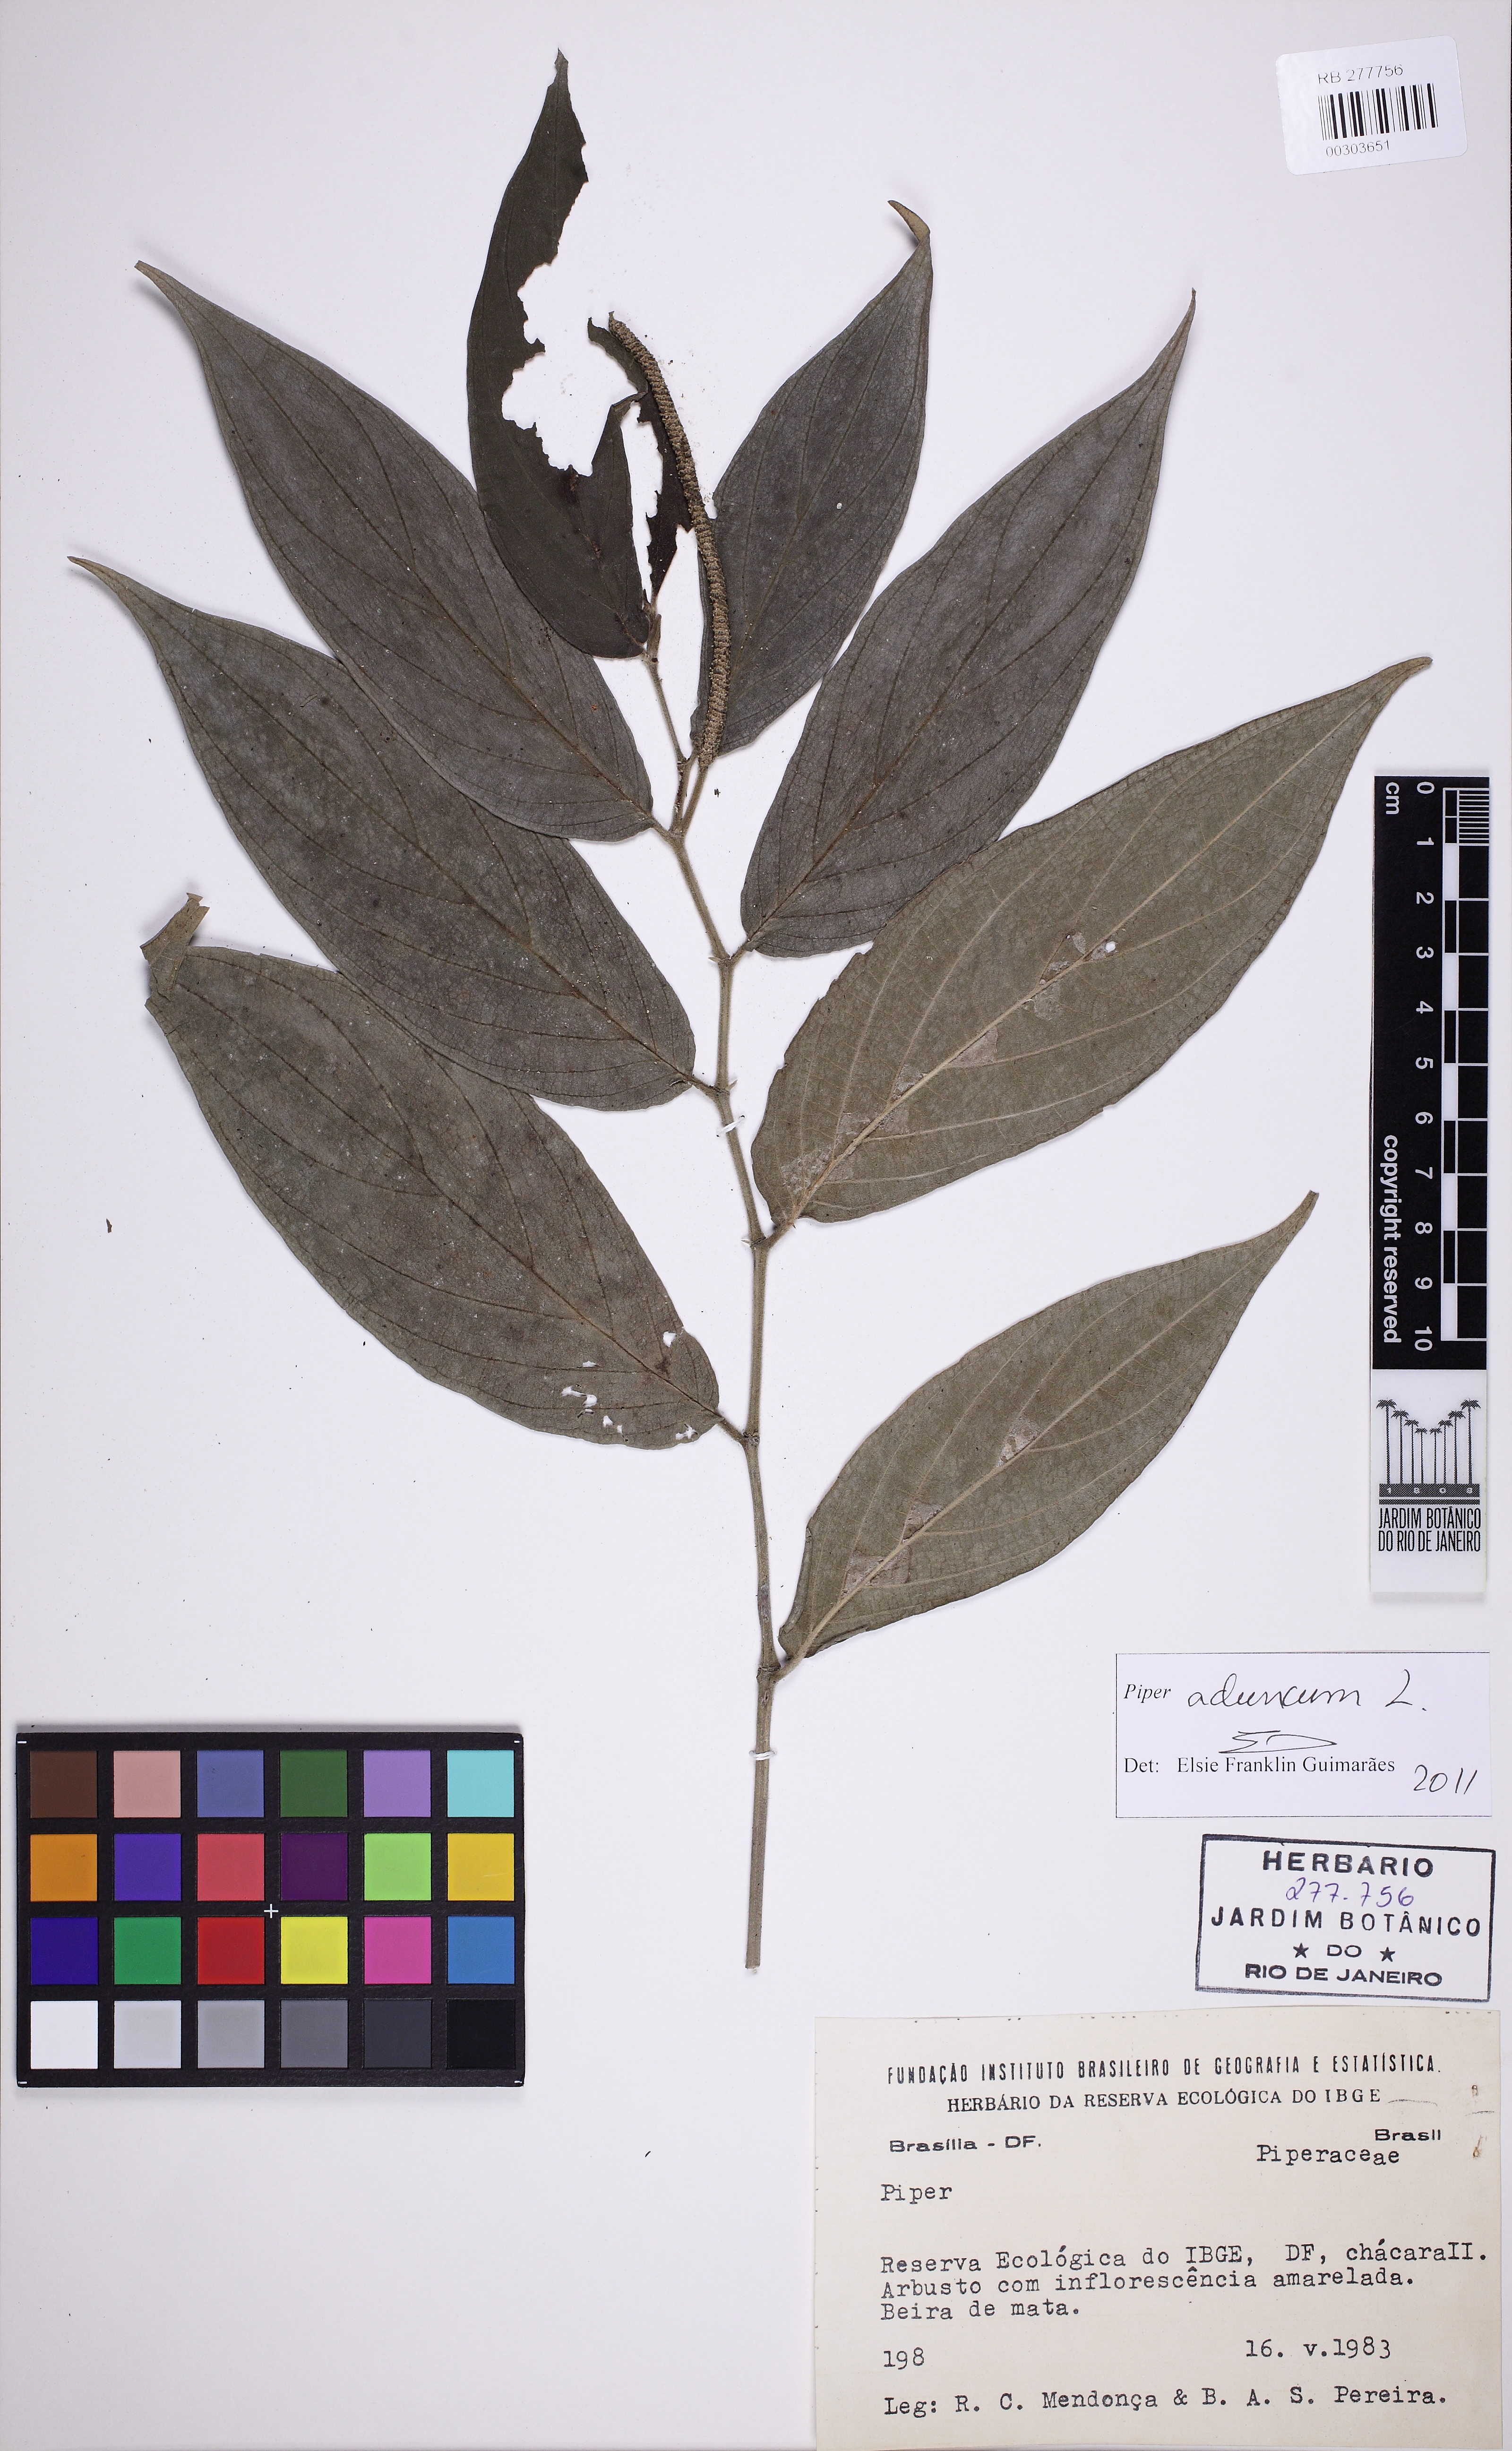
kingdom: Plantae
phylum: Tracheophyta
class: Magnoliopsida
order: Piperales
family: Piperaceae
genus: Piper
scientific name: Piper aduncum
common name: Spiked pepper
